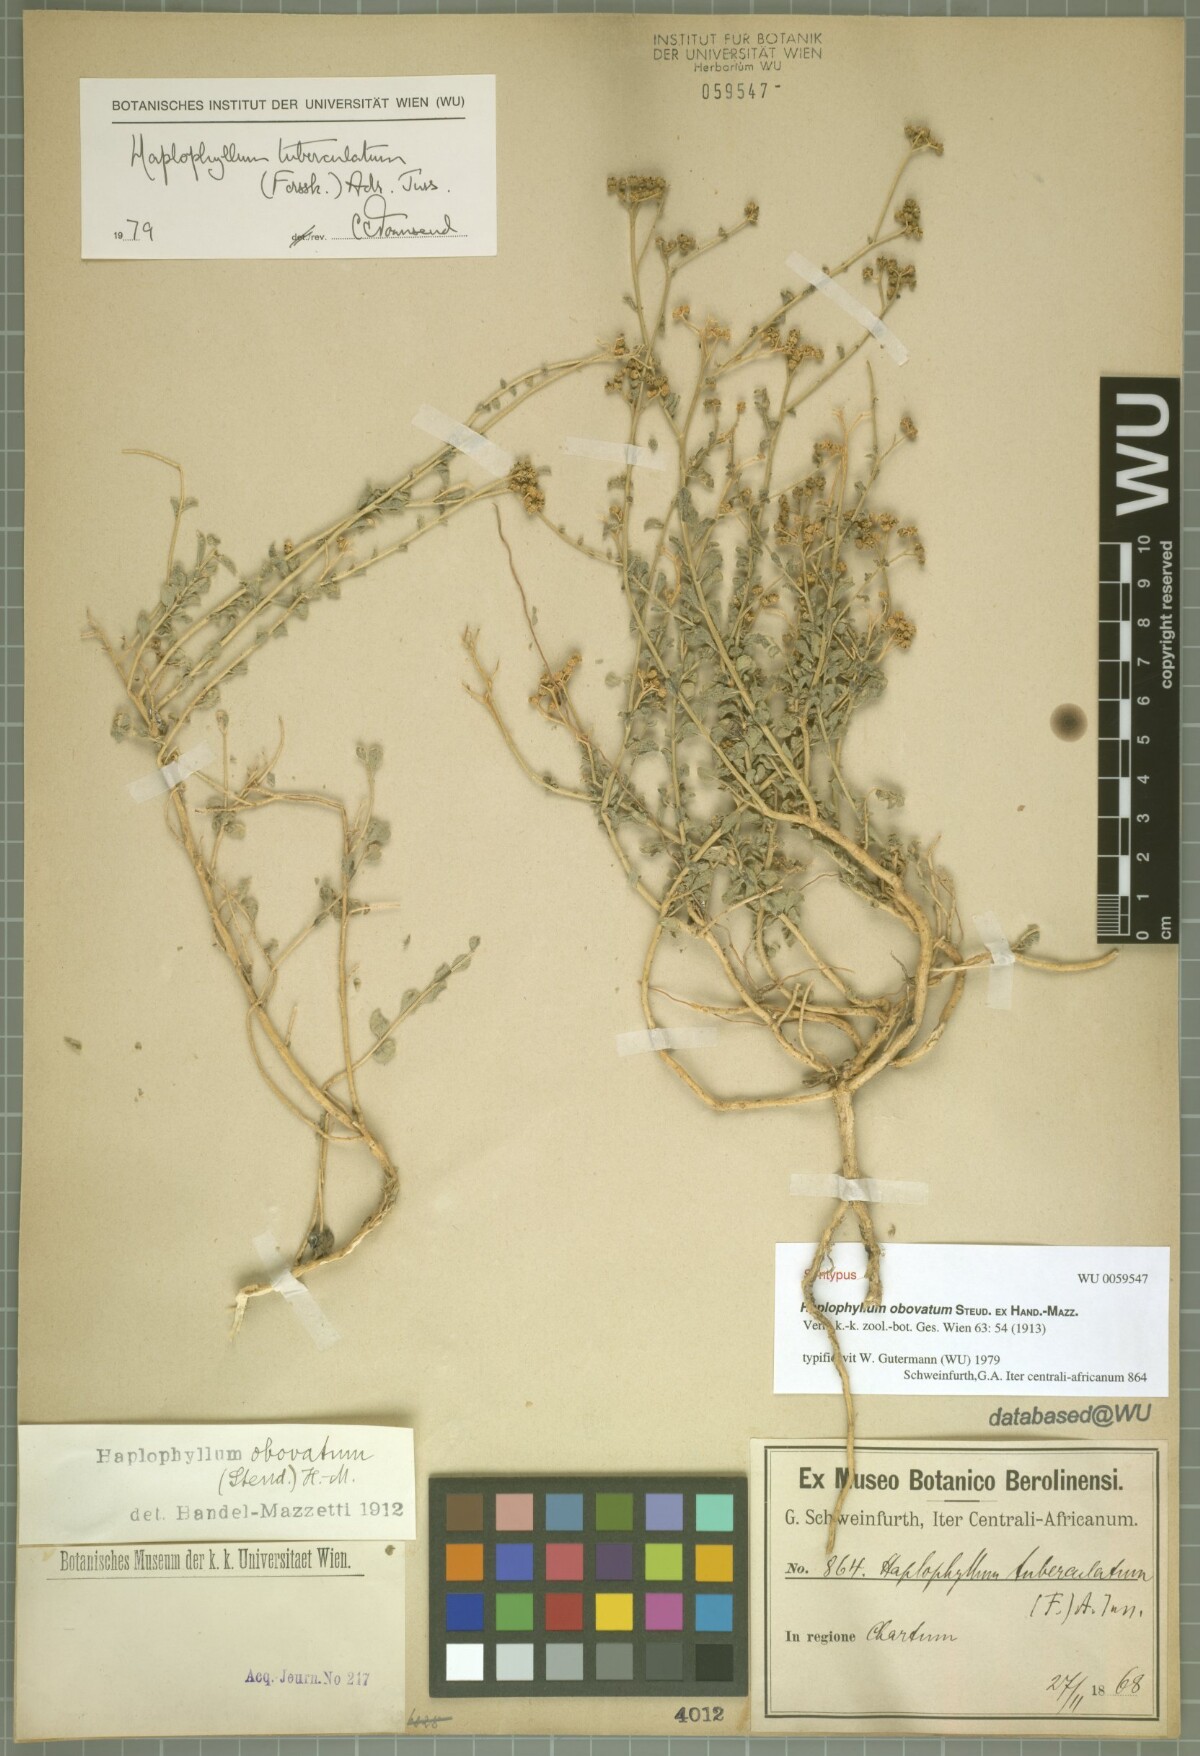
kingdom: Plantae
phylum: Tracheophyta
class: Magnoliopsida
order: Sapindales
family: Rutaceae
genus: Haplophyllum
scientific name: Haplophyllum tuberculatum
